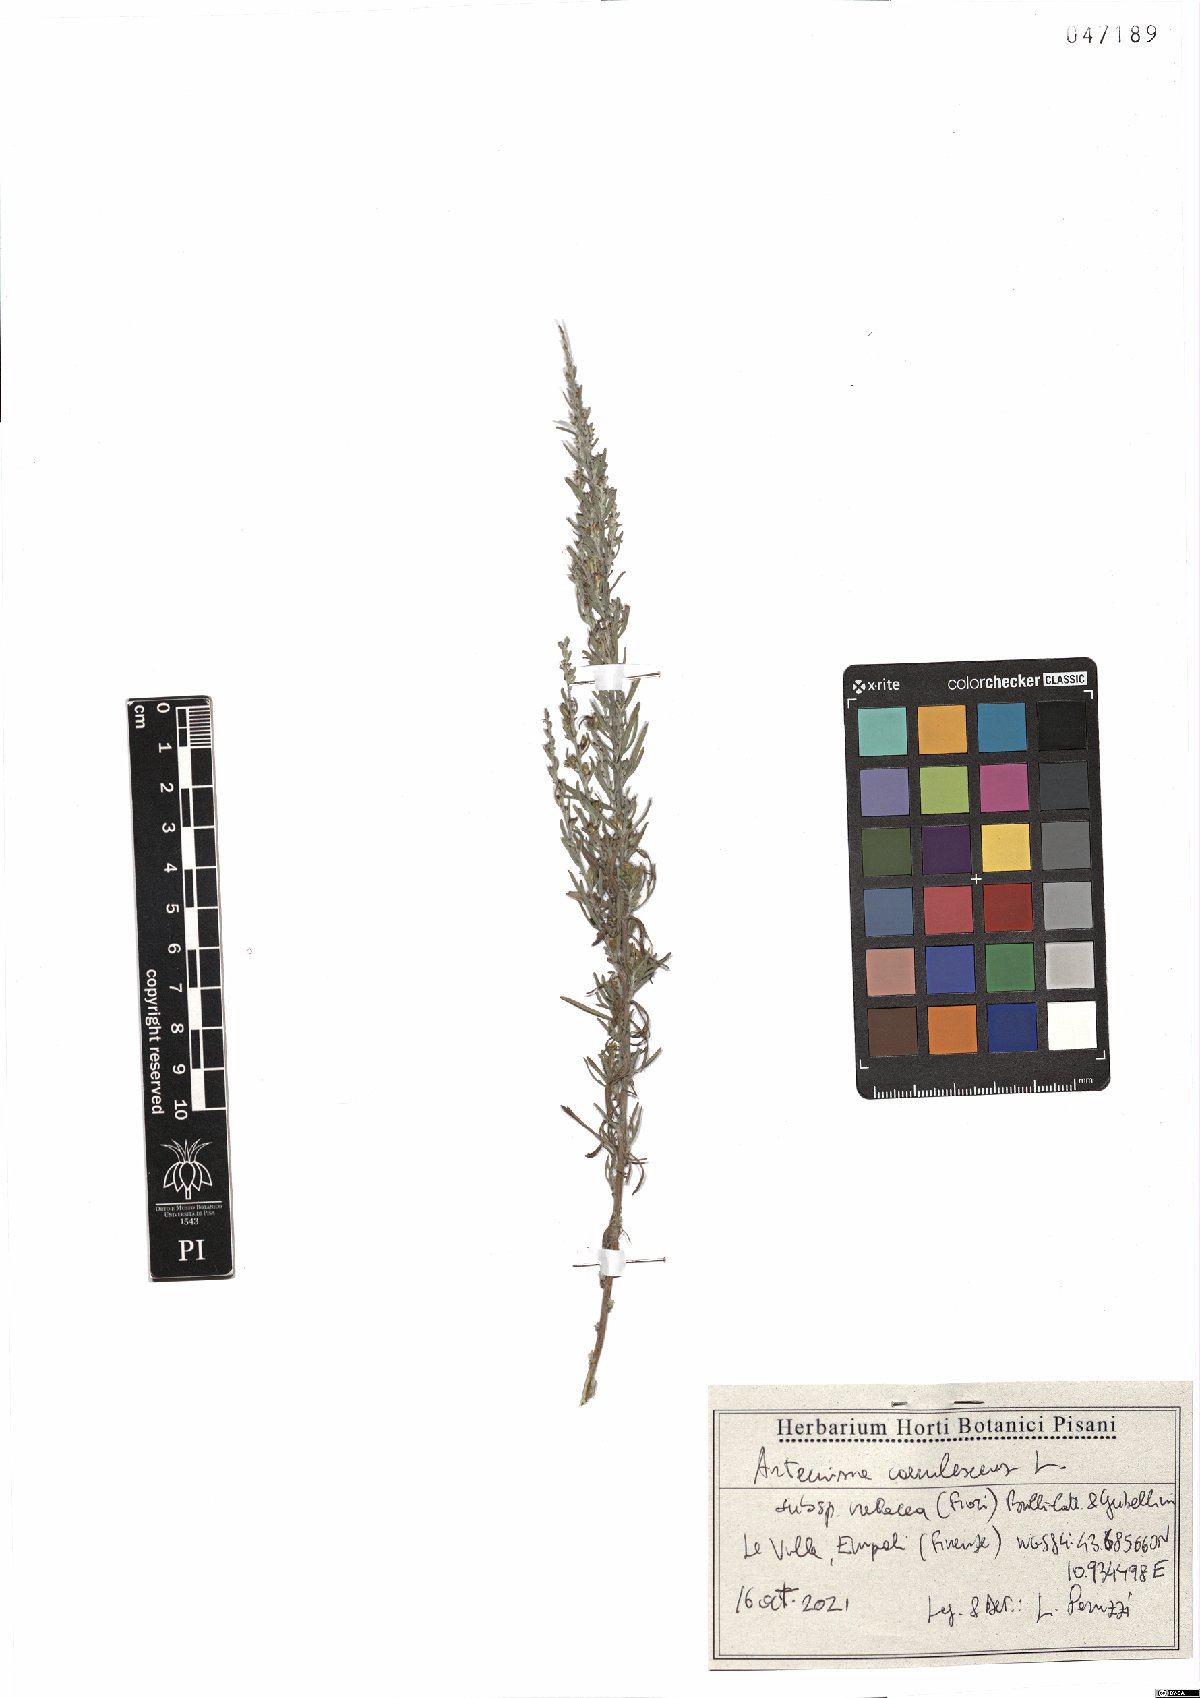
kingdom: Plantae
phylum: Tracheophyta
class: Magnoliopsida
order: Asterales
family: Asteraceae
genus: Artemisia
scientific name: Artemisia caerulescens
